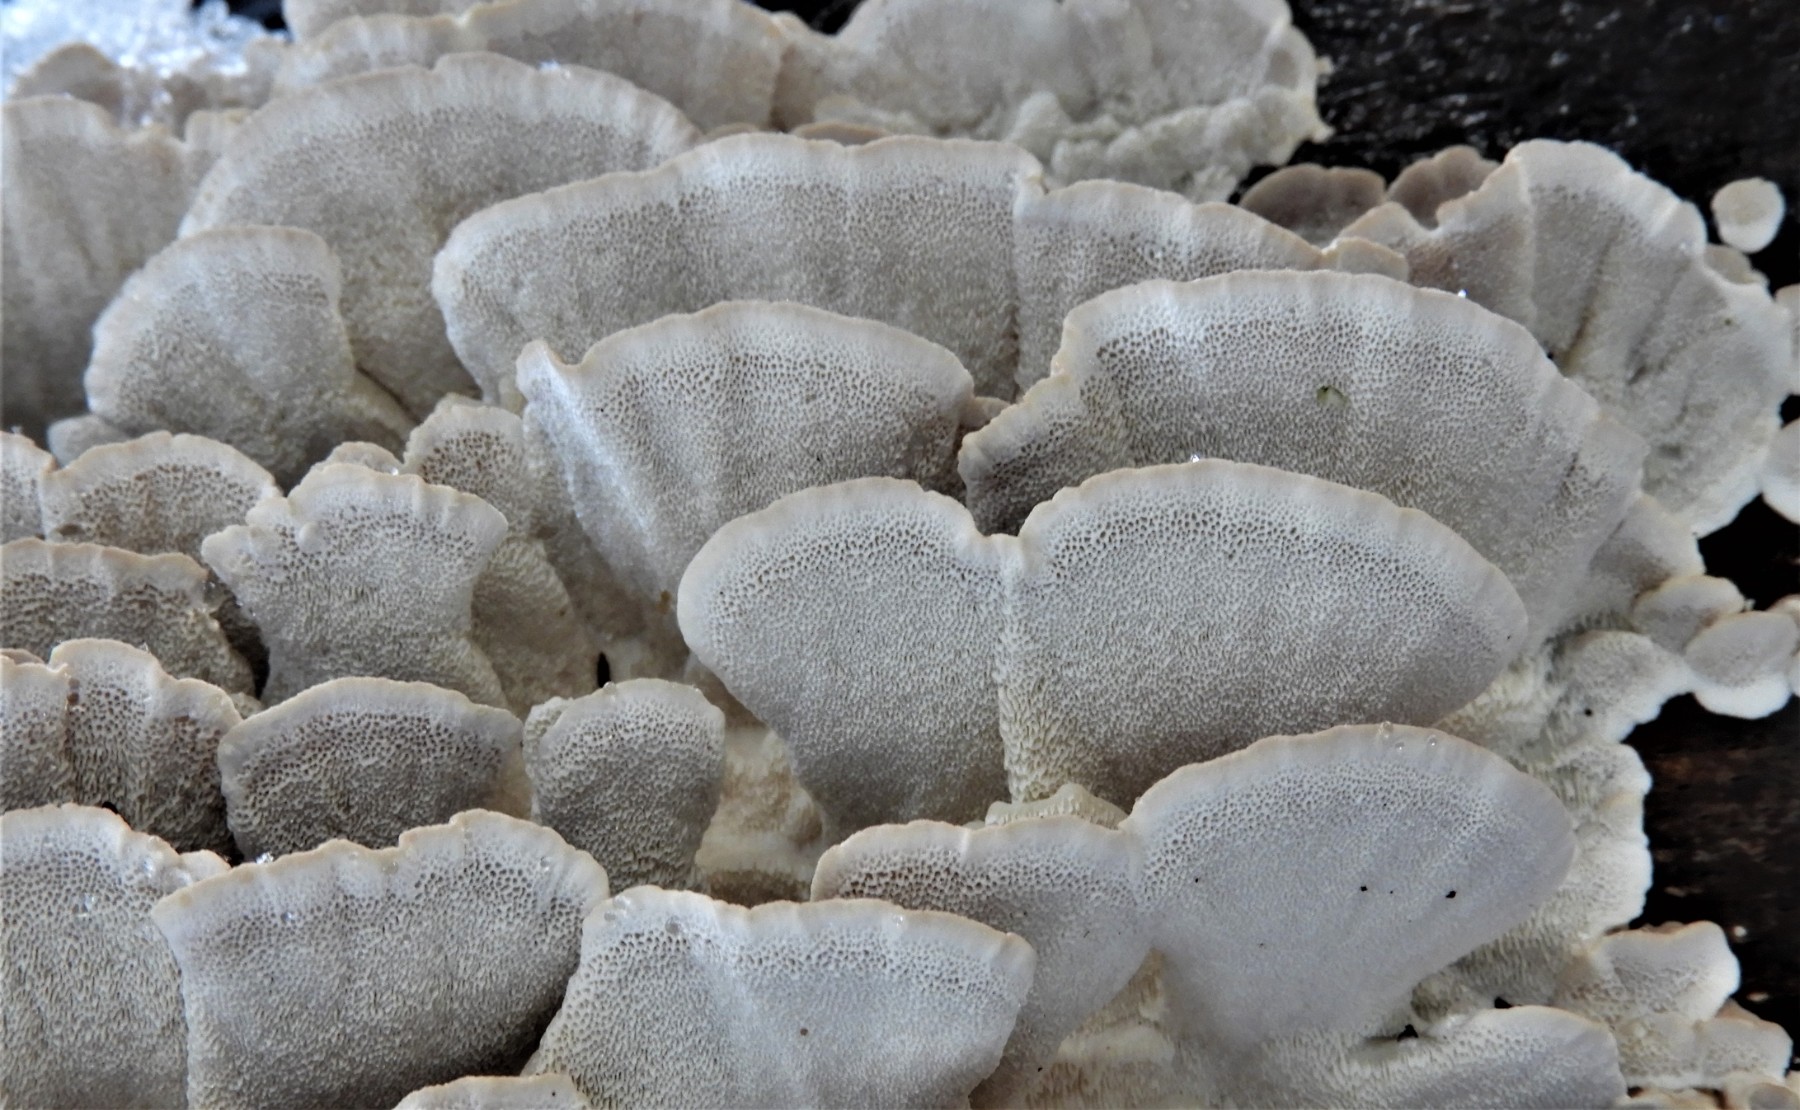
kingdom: Fungi
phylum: Basidiomycota
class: Agaricomycetes
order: Polyporales
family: Polyporaceae
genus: Trametes
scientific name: Trametes versicolor
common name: broget læderporesvamp
